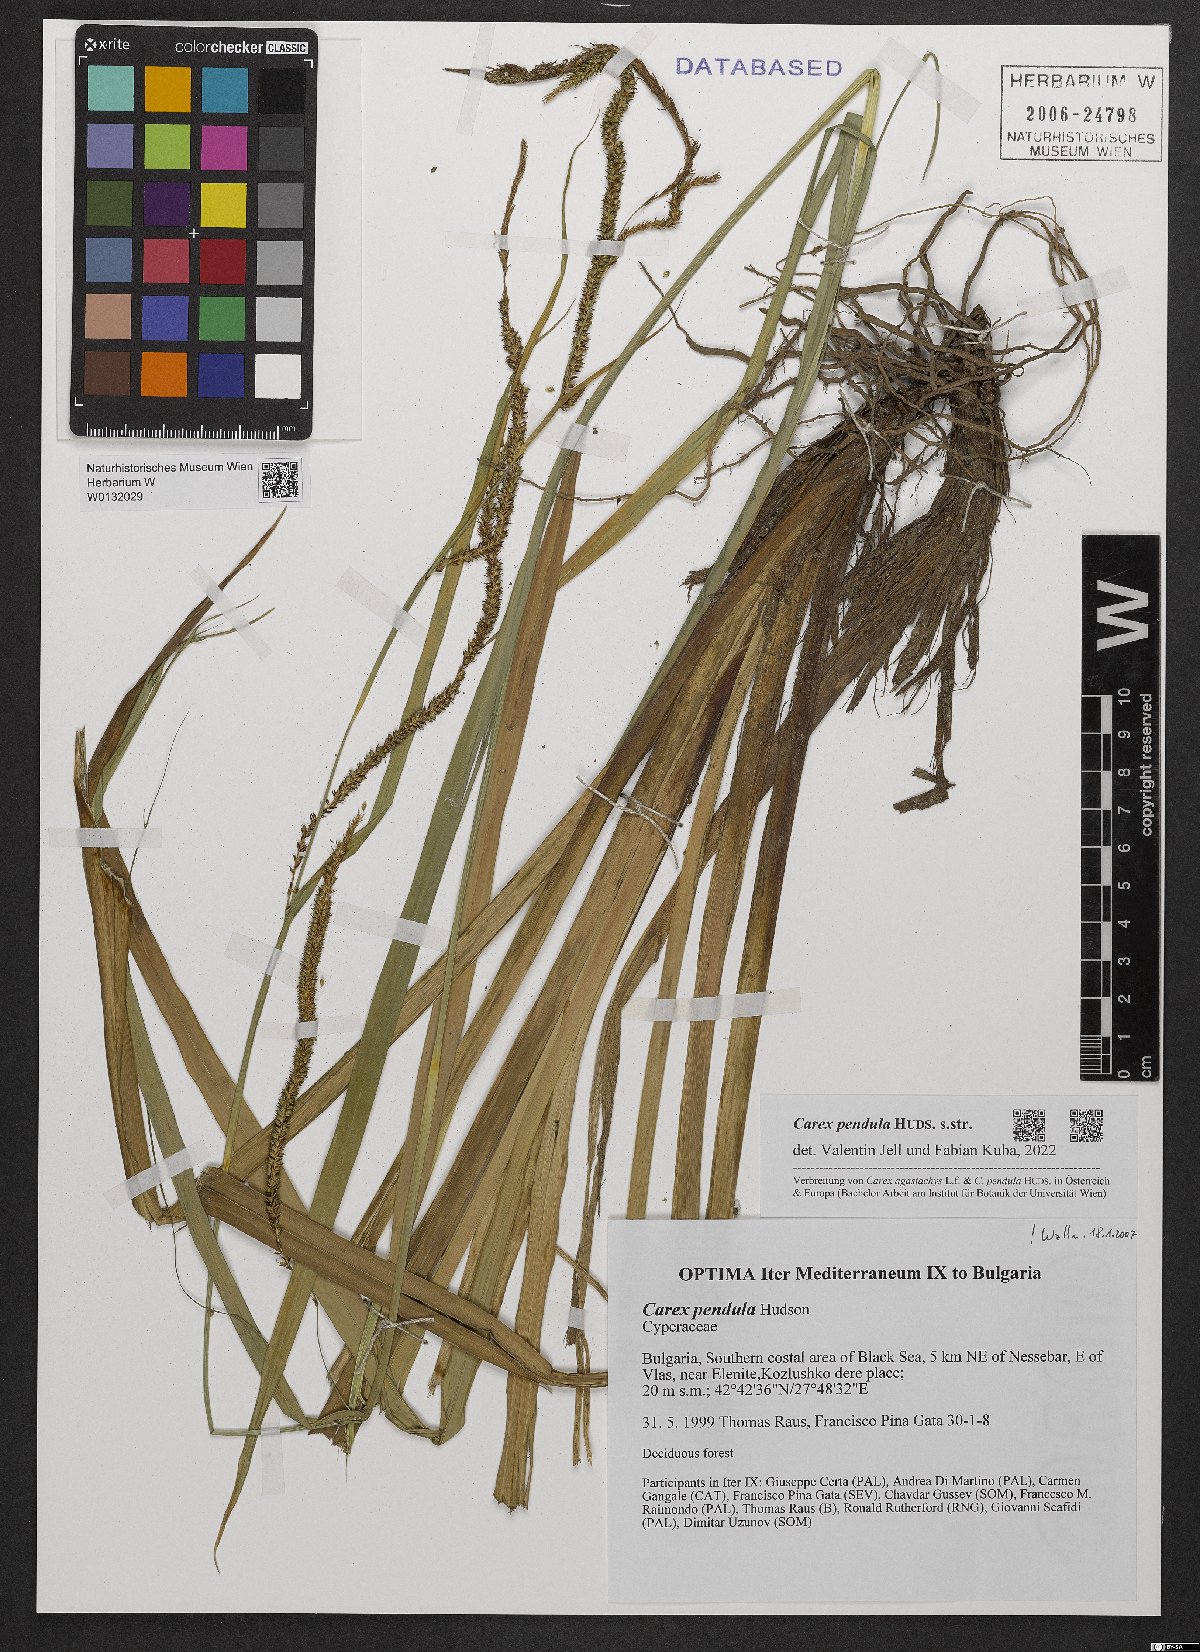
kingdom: Plantae
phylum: Tracheophyta
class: Liliopsida
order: Poales
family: Cyperaceae
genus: Carex
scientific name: Carex pendula
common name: Pendulous sedge
